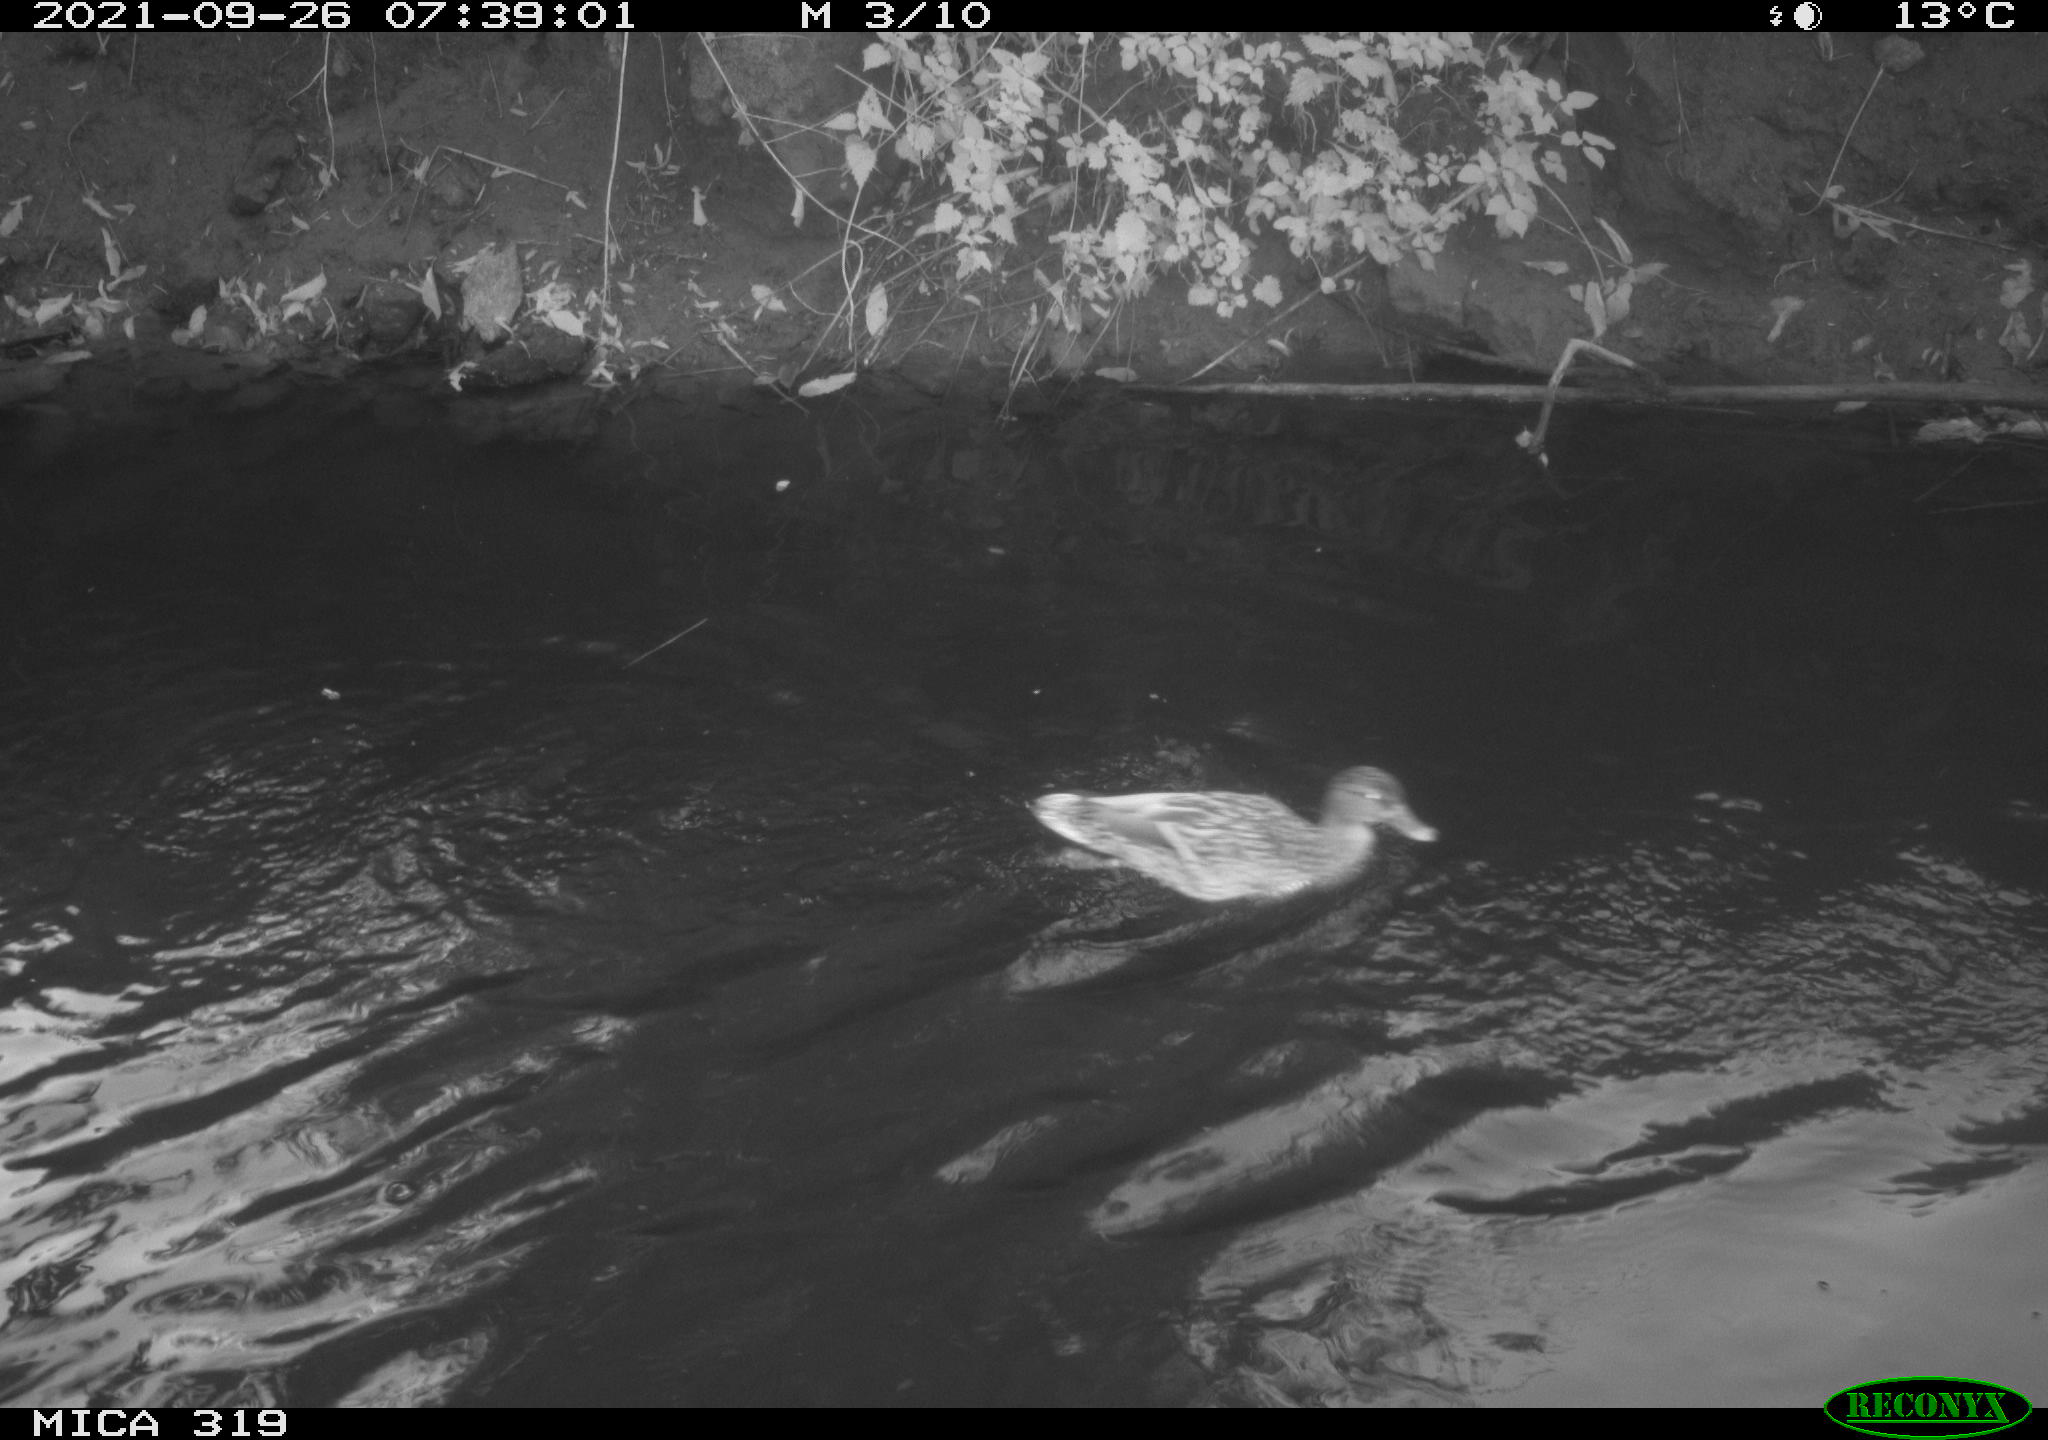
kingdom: Animalia
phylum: Chordata
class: Aves
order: Anseriformes
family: Anatidae
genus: Anas
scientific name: Anas platyrhynchos
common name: Mallard
